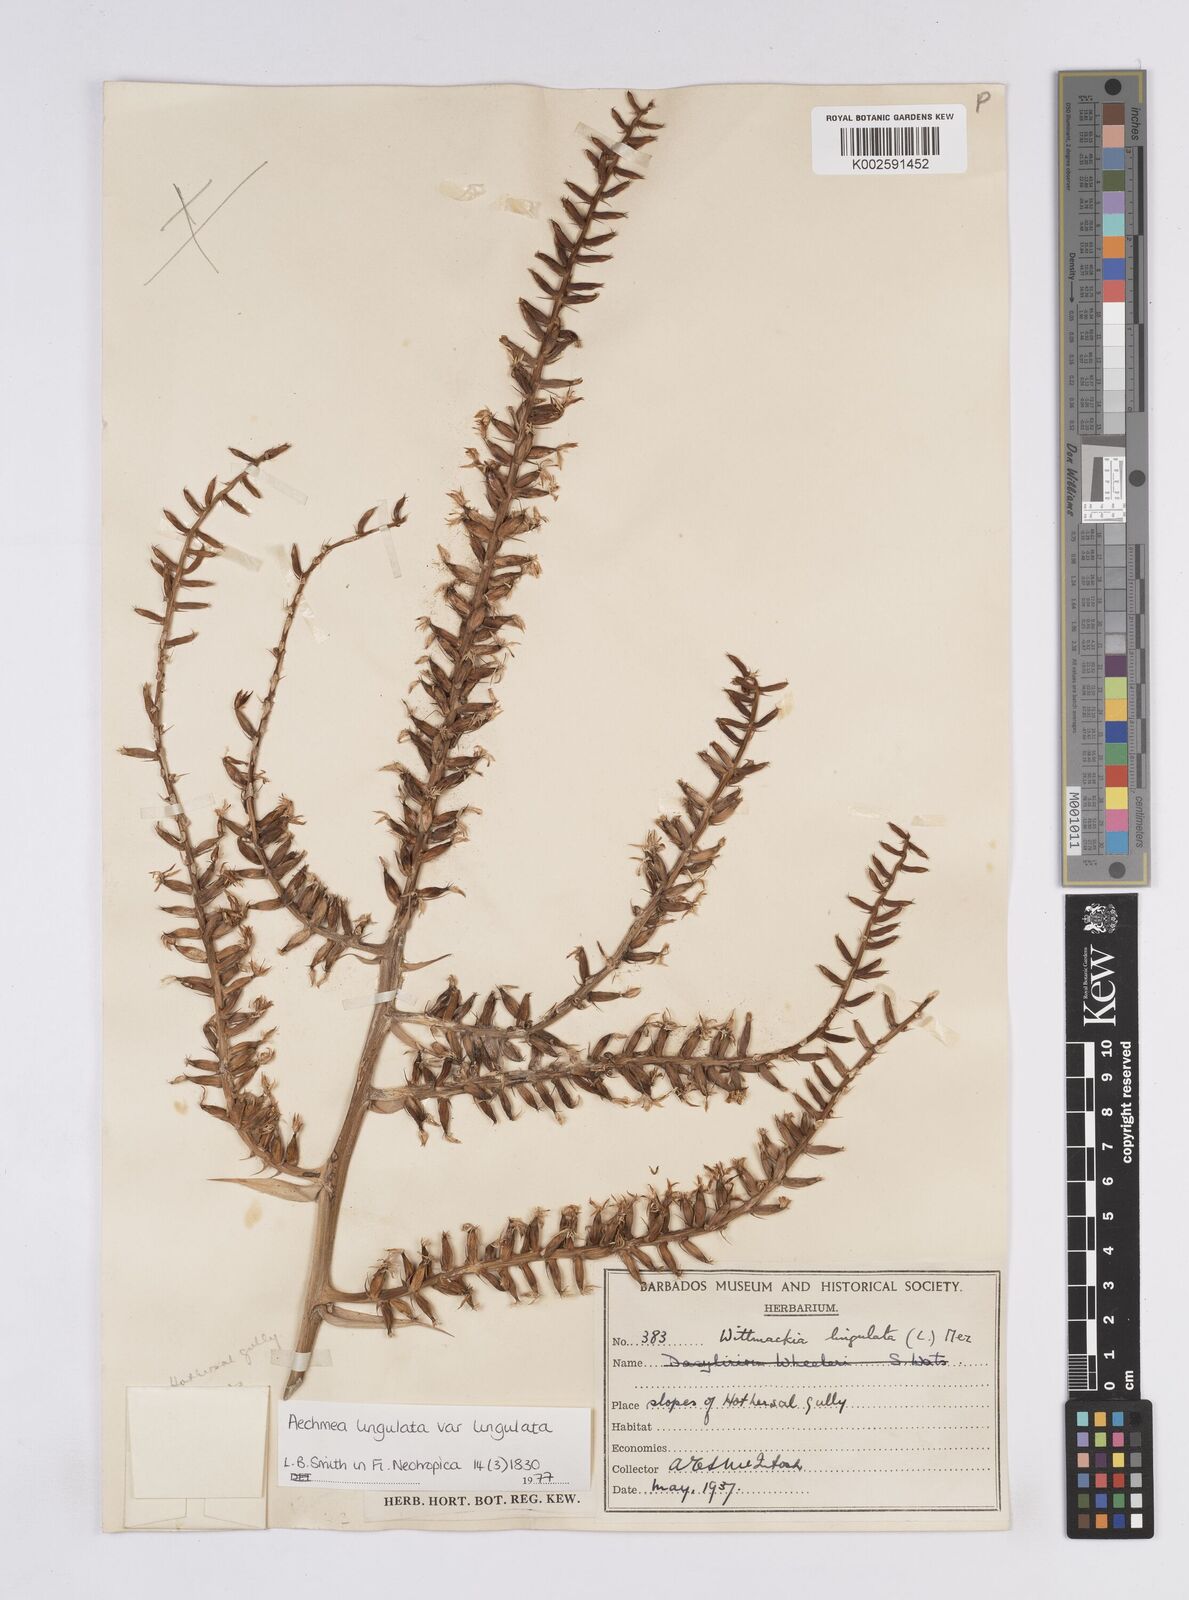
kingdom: Plantae
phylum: Tracheophyta
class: Liliopsida
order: Poales
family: Bromeliaceae
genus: Wittmackia
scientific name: Wittmackia lingulata
